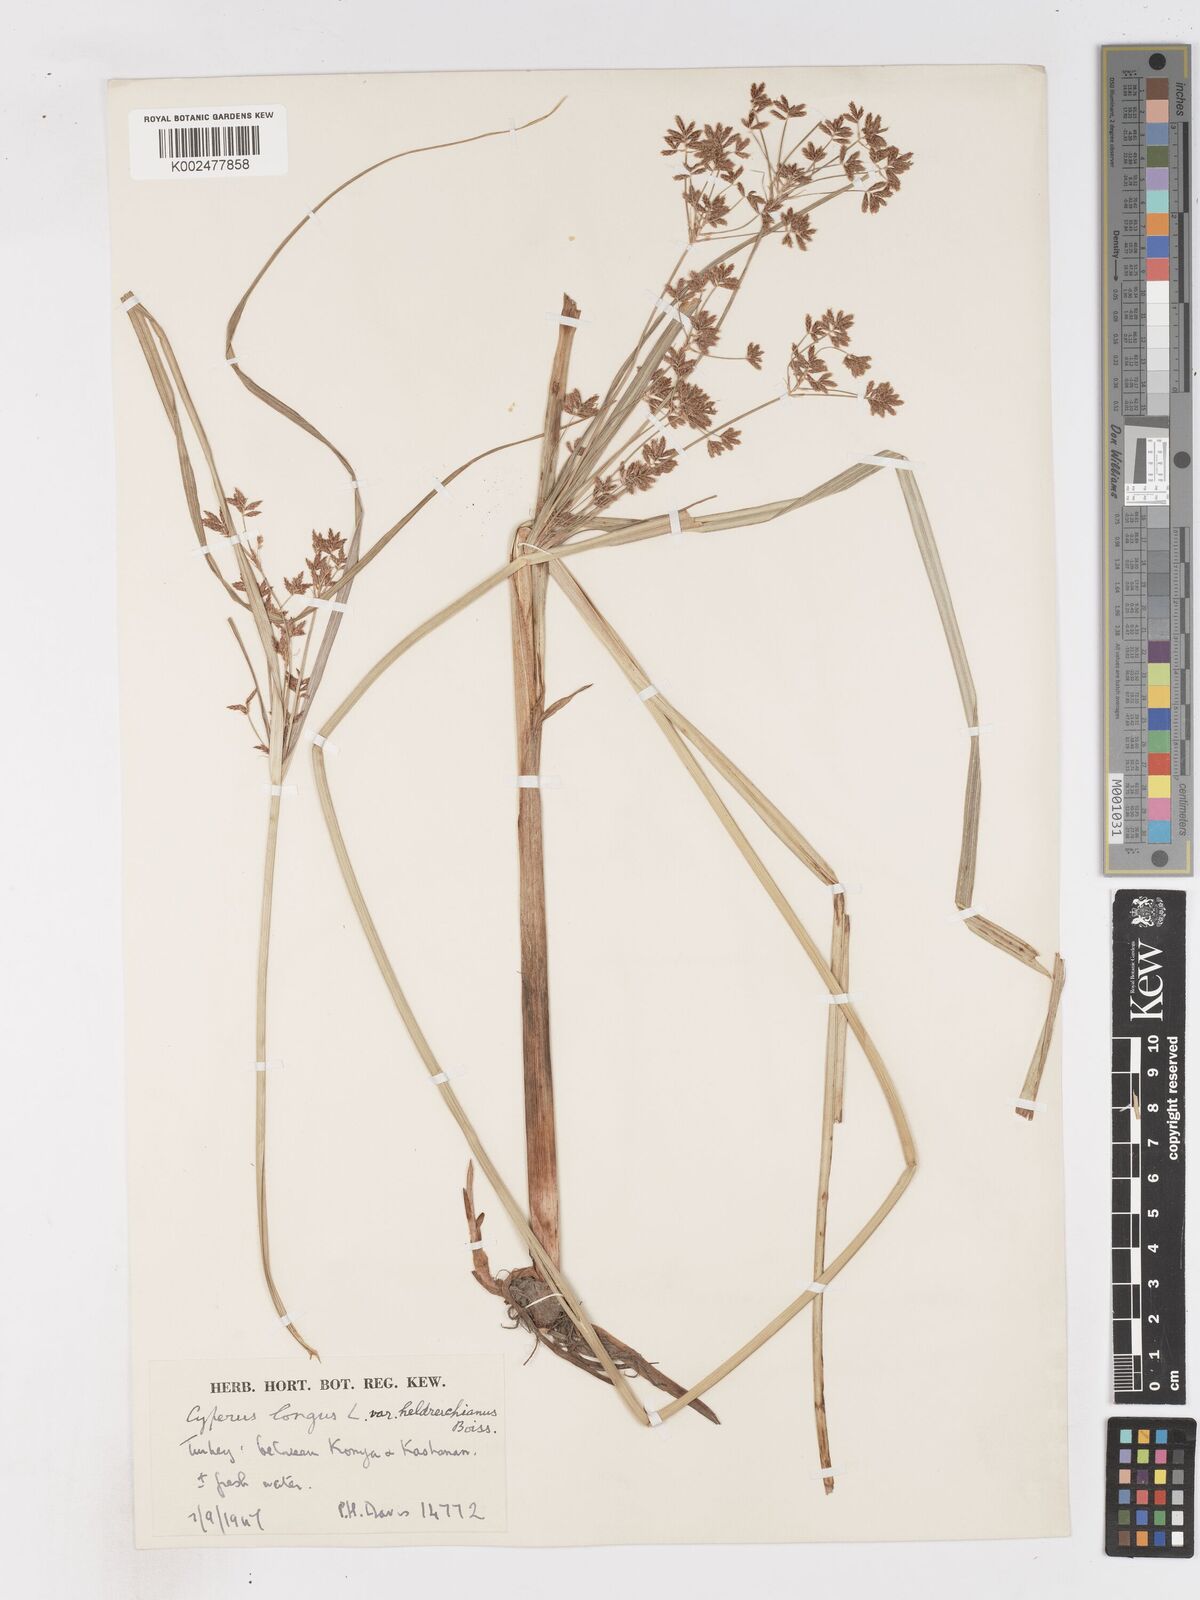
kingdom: Plantae
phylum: Tracheophyta
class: Liliopsida
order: Poales
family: Cyperaceae
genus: Cyperus
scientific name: Cyperus patulus
